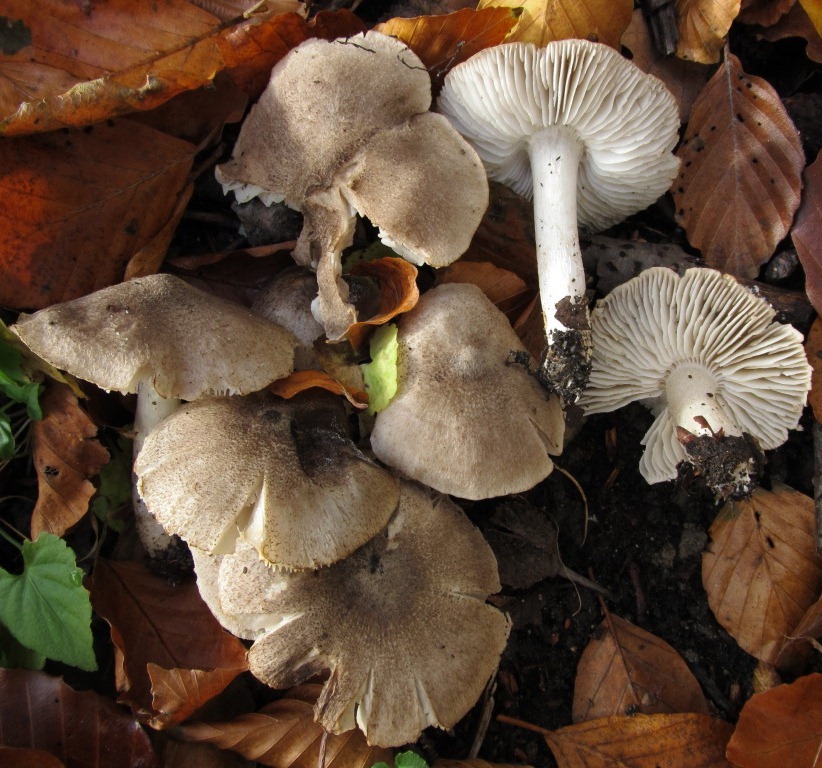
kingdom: Fungi
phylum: Basidiomycota
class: Agaricomycetes
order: Agaricales
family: Tricholomataceae
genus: Tricholoma
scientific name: Tricholoma sciodes
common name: stribet ridderhat
